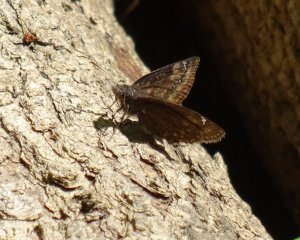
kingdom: Animalia
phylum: Arthropoda
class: Insecta
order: Lepidoptera
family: Hesperiidae
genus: Gesta
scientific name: Gesta
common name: Wild Indigo Duskywing
